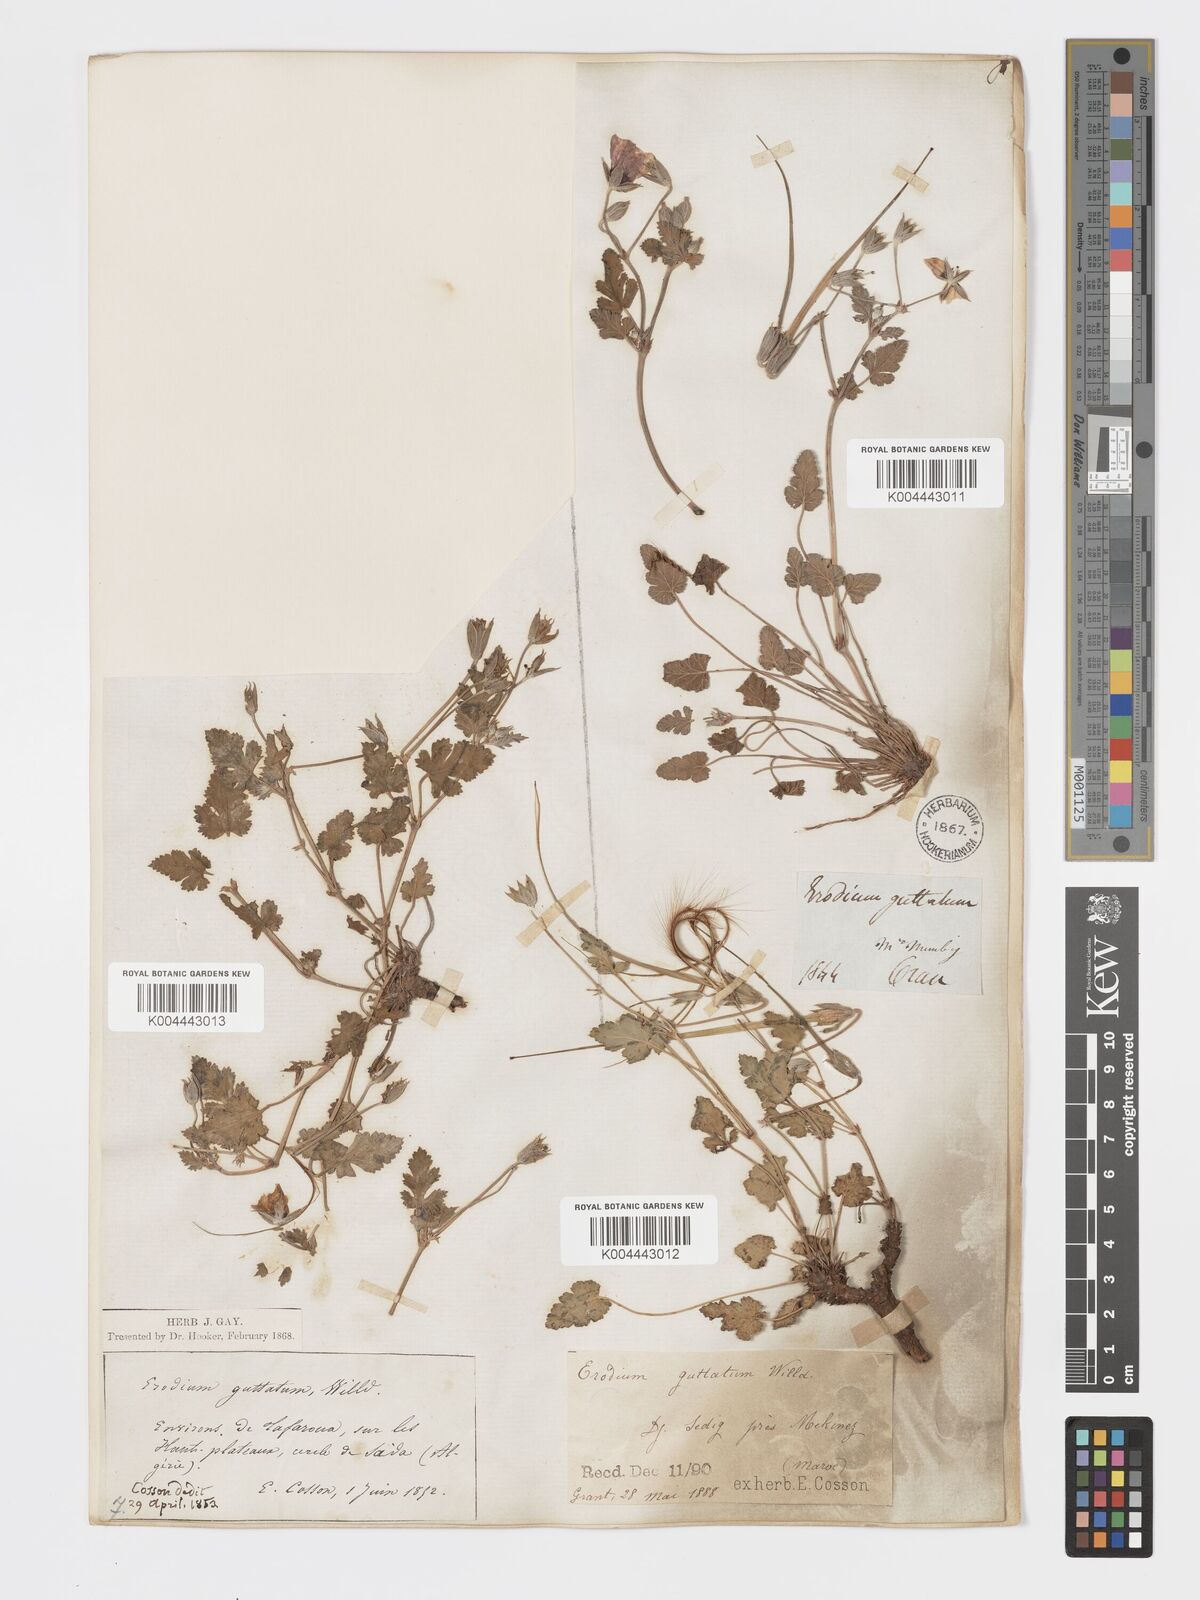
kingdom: Plantae
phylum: Tracheophyta
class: Magnoliopsida
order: Geraniales
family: Geraniaceae
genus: Erodium
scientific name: Erodium guttatum
